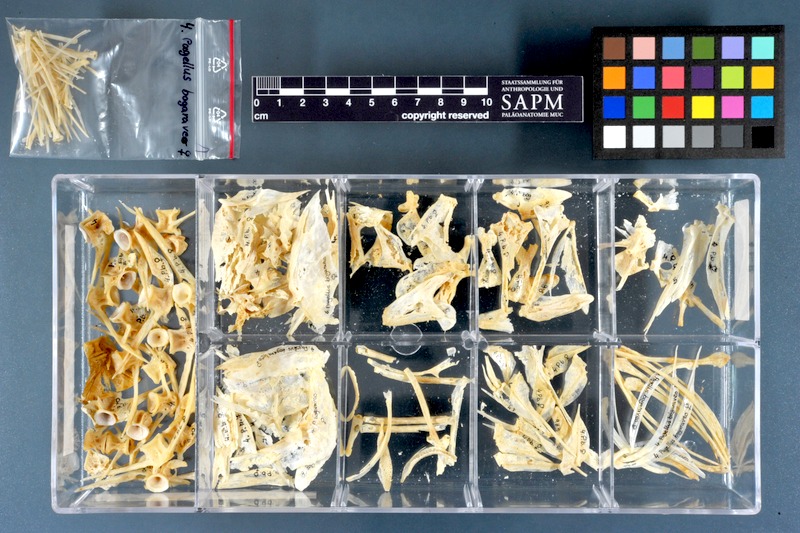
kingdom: Animalia
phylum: Chordata
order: Perciformes
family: Sparidae
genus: Pagellus
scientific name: Pagellus bogaraveo
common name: Red sea-bream
